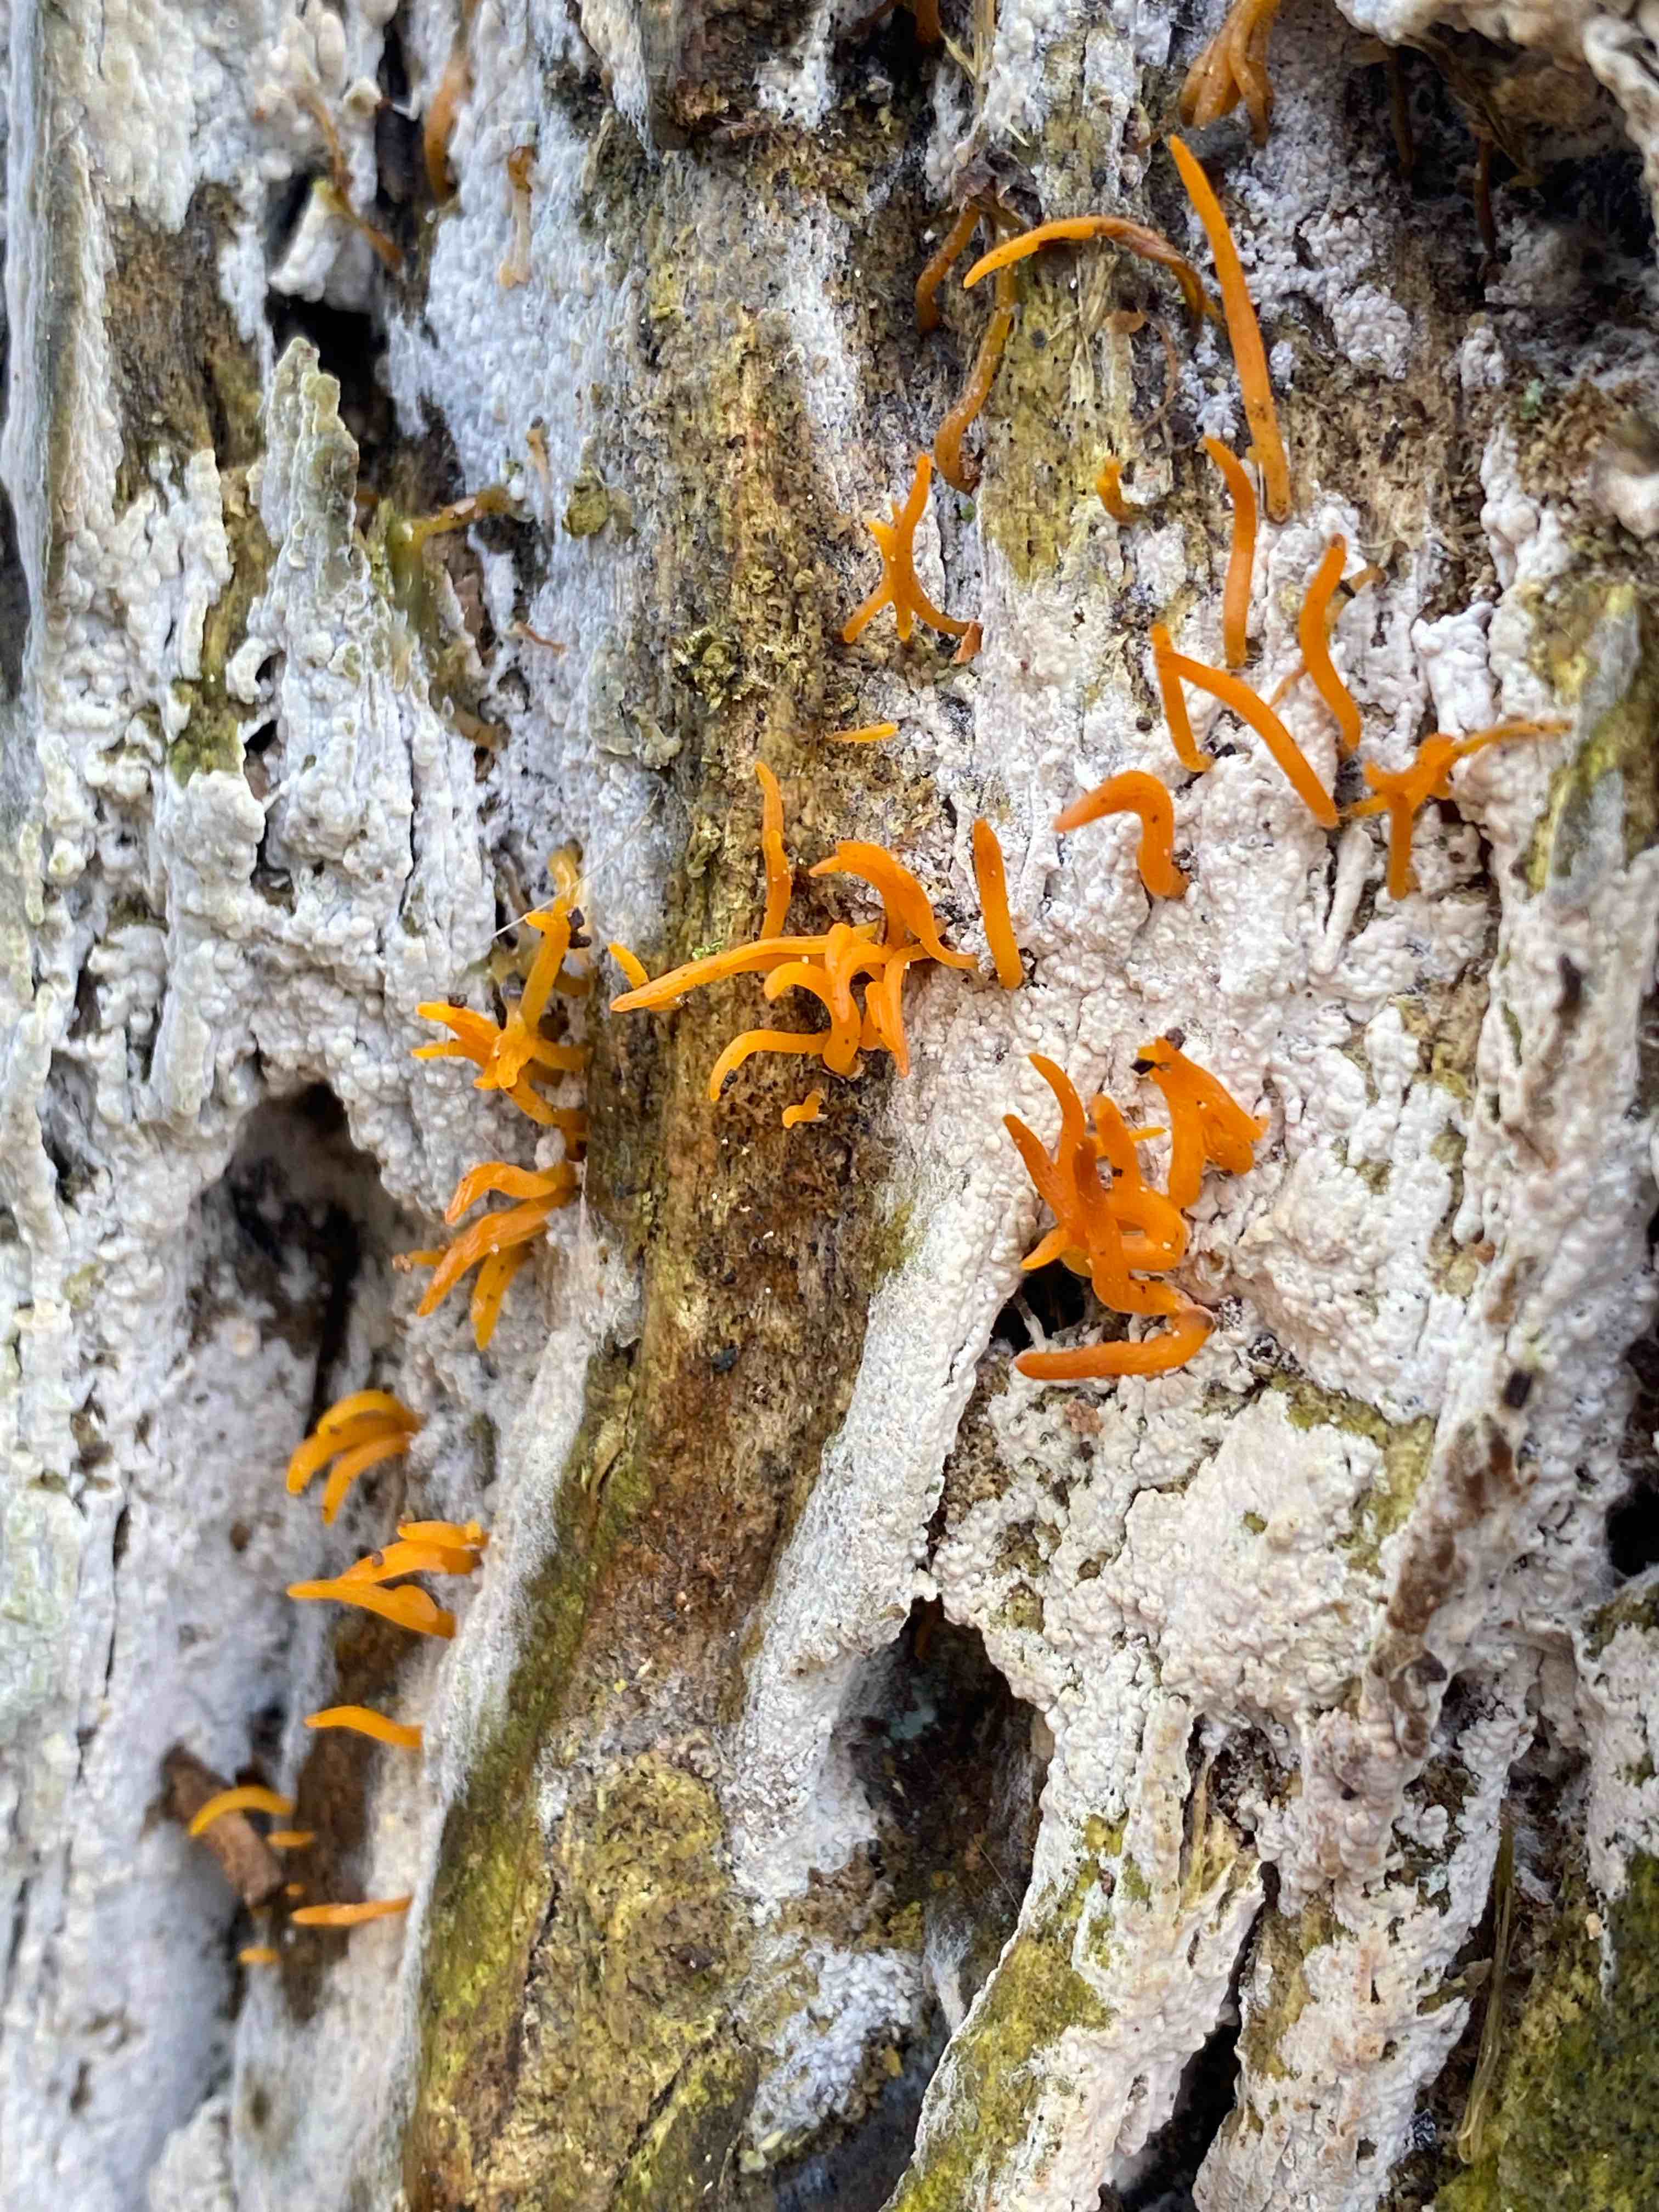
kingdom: Fungi
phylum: Basidiomycota
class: Dacrymycetes
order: Dacrymycetales
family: Dacrymycetaceae
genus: Calocera
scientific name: Calocera cornea
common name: liden guldgaffel
